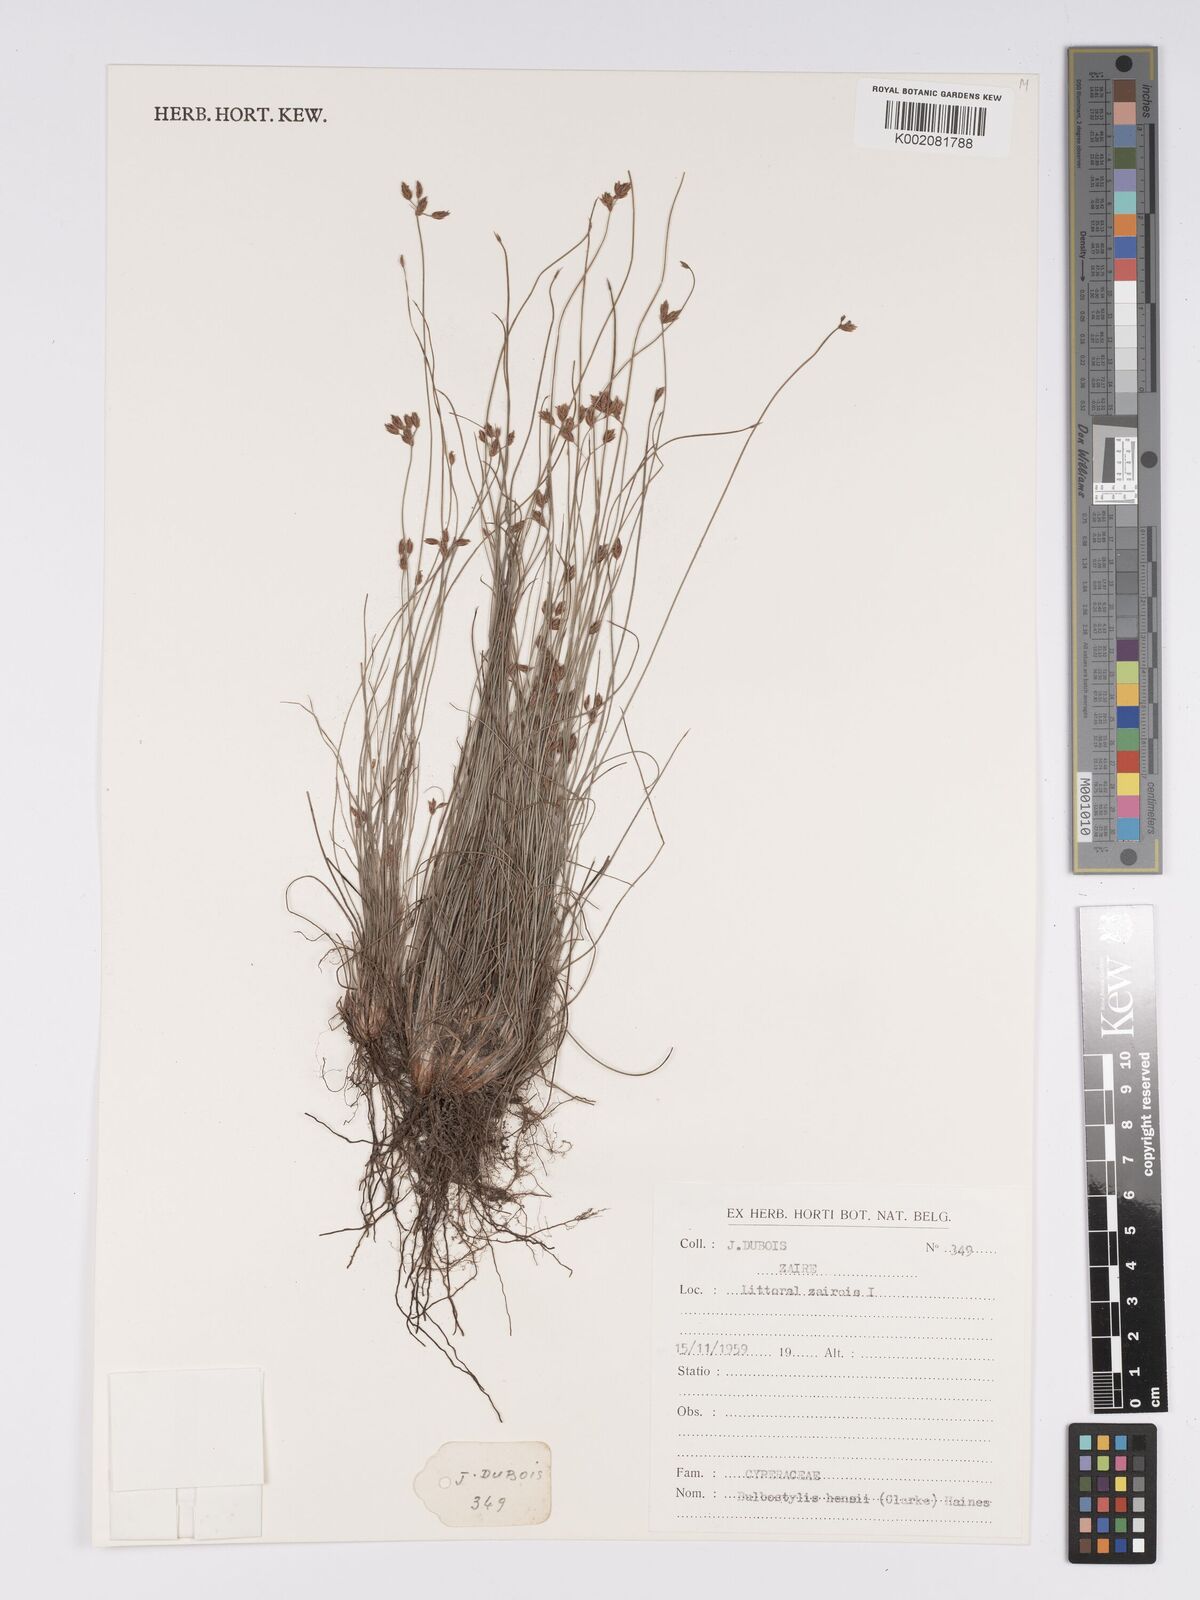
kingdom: Plantae
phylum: Tracheophyta
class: Liliopsida
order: Poales
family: Cyperaceae
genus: Bulbostylis
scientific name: Bulbostylis hensii
